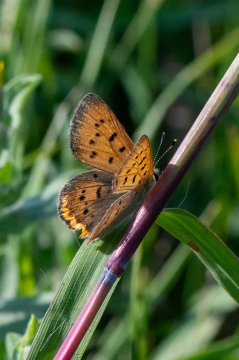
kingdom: Animalia
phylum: Arthropoda
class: Insecta
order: Lepidoptera
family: Sesiidae
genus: Sesia
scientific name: Sesia Lycaena helloides
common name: Purplish Copper
